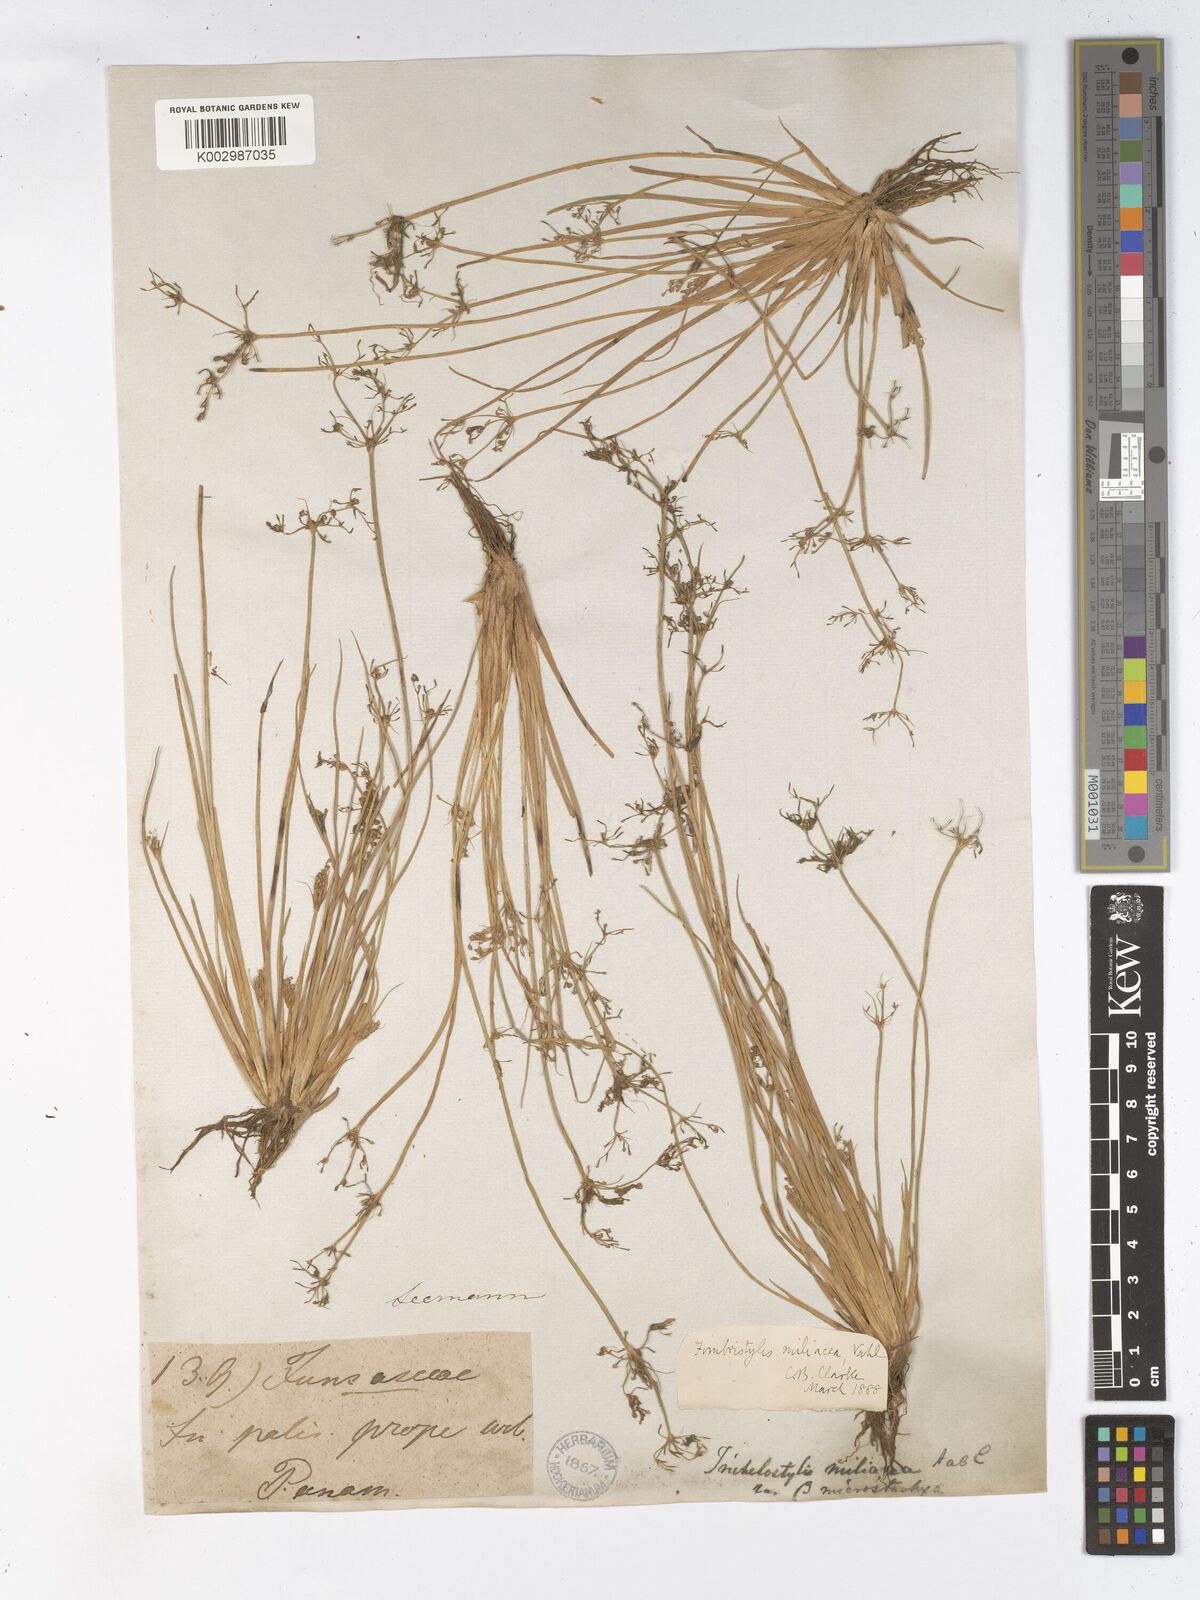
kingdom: Plantae
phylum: Tracheophyta
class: Liliopsida
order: Poales
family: Cyperaceae
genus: Fimbristylis
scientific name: Fimbristylis littoralis
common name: Fimbry
